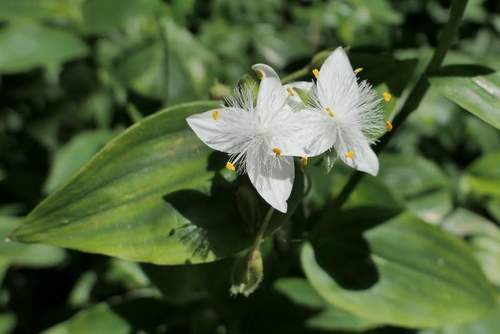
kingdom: Plantae
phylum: Tracheophyta
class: Liliopsida
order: Commelinales
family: Commelinaceae
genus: Tradescantia
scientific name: Tradescantia fluminensis
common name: Wandering-jew
